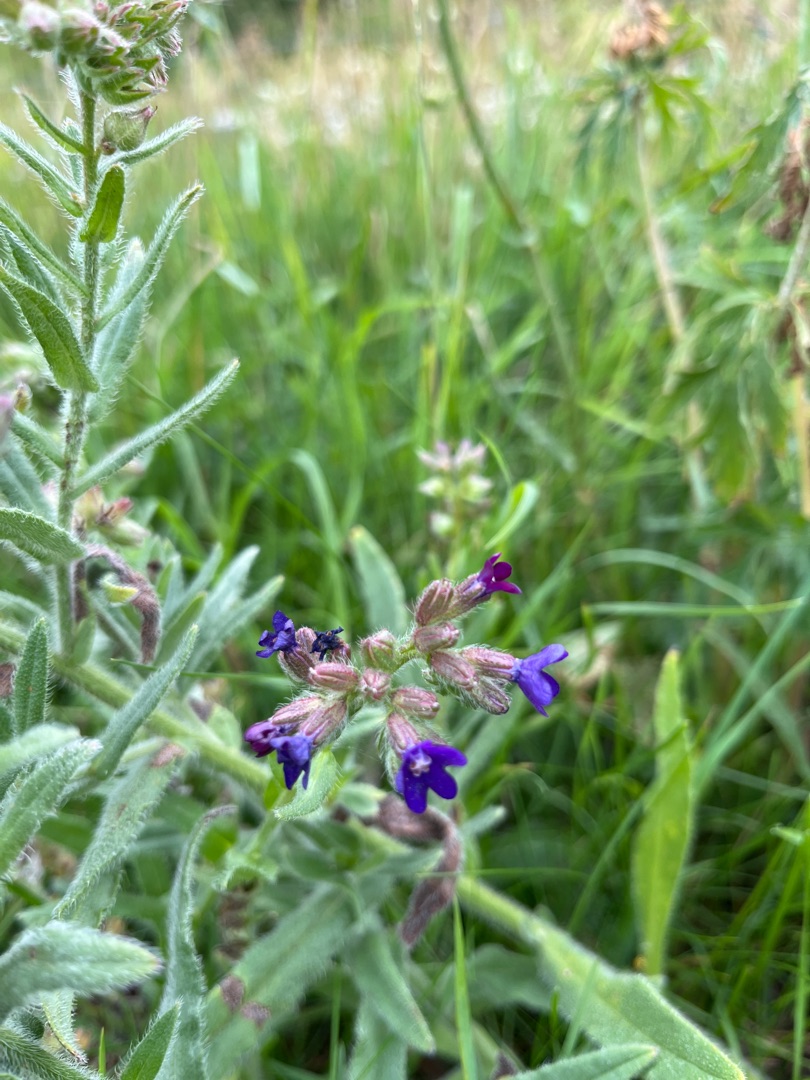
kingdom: Plantae
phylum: Tracheophyta
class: Magnoliopsida
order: Boraginales
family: Boraginaceae
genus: Anchusa
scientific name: Anchusa officinalis
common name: Læge-oksetunge
